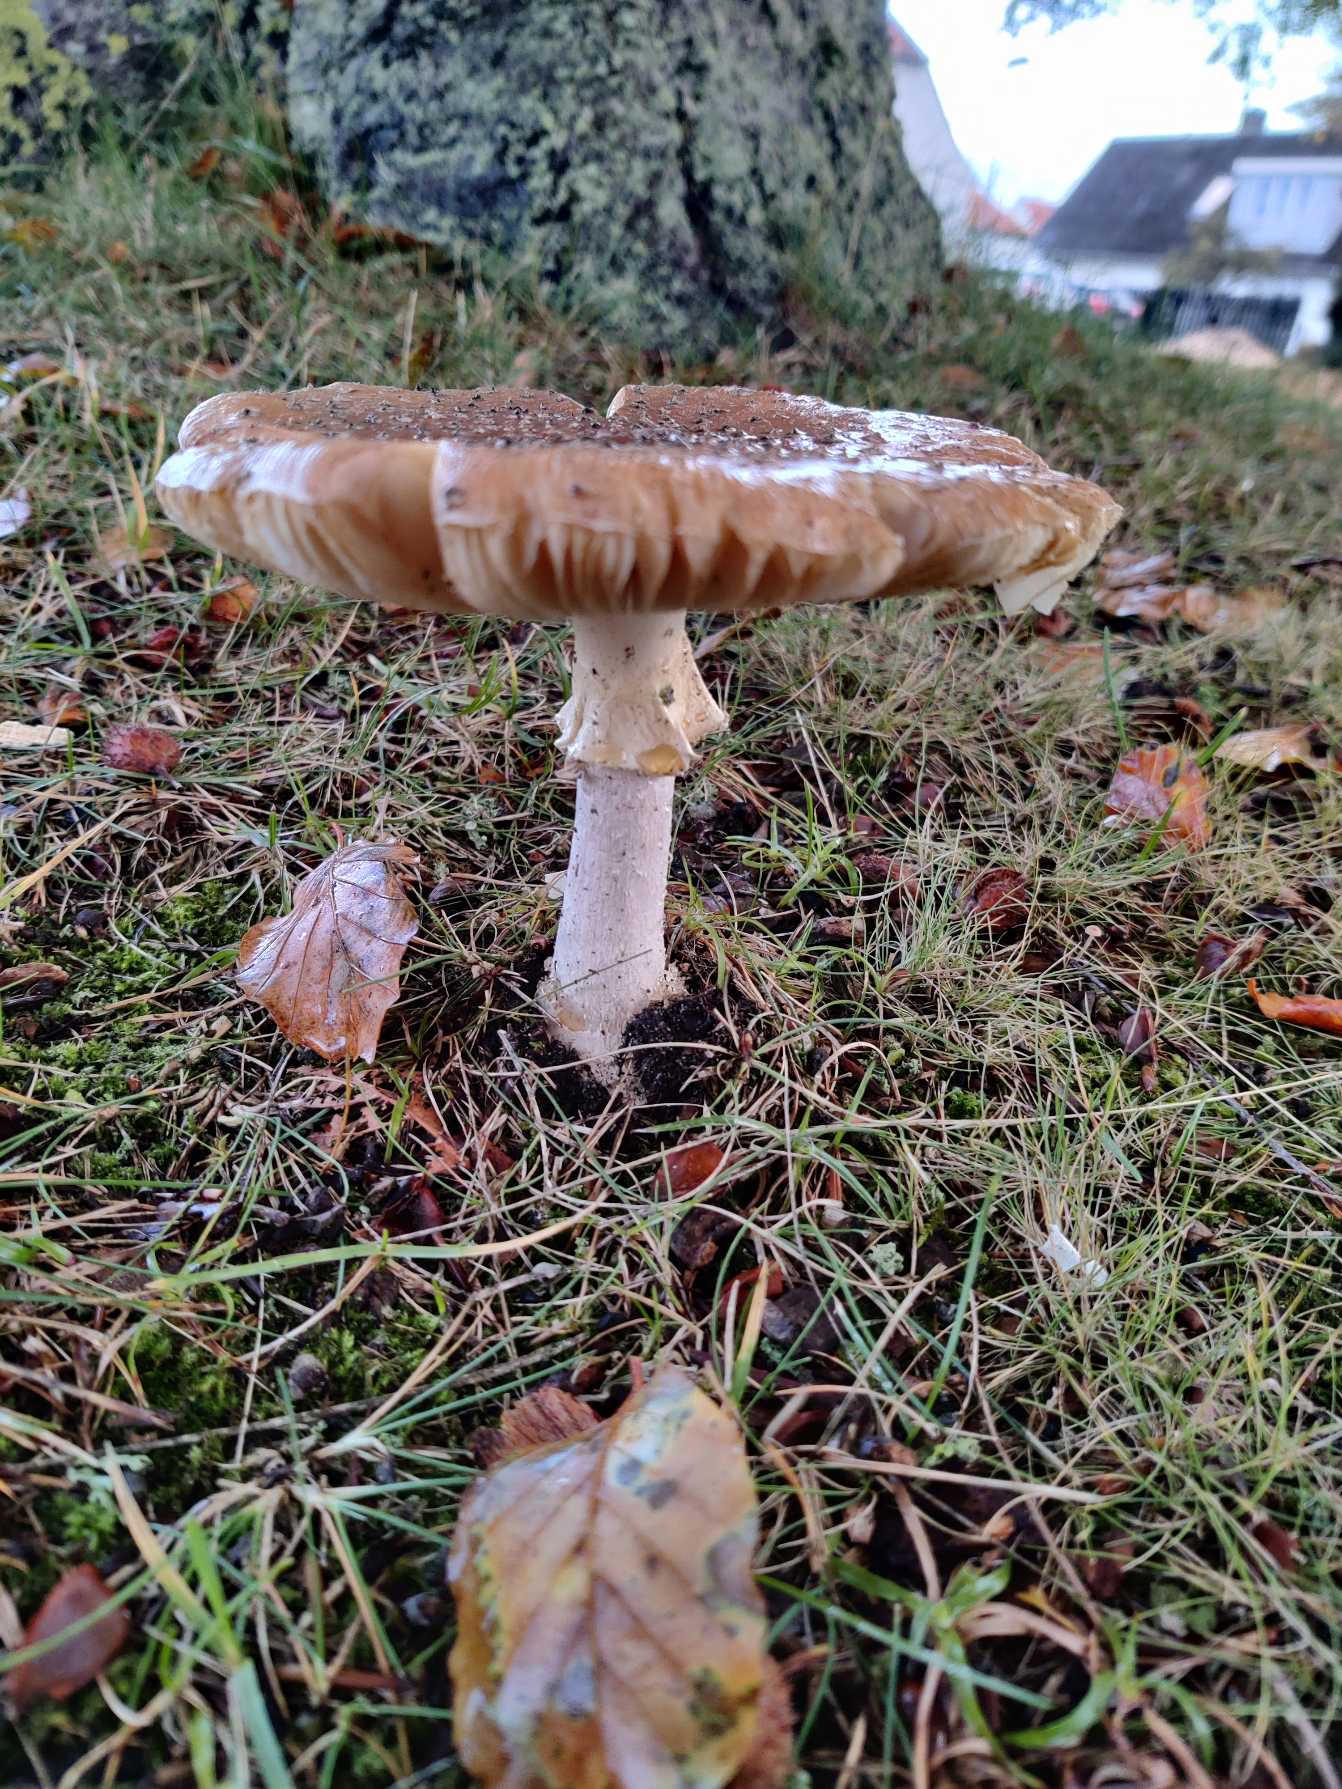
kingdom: Fungi
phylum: Basidiomycota
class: Agaricomycetes
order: Agaricales
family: Amanitaceae
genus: Amanita
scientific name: Amanita rubescens
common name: Rødmende fluesvamp
